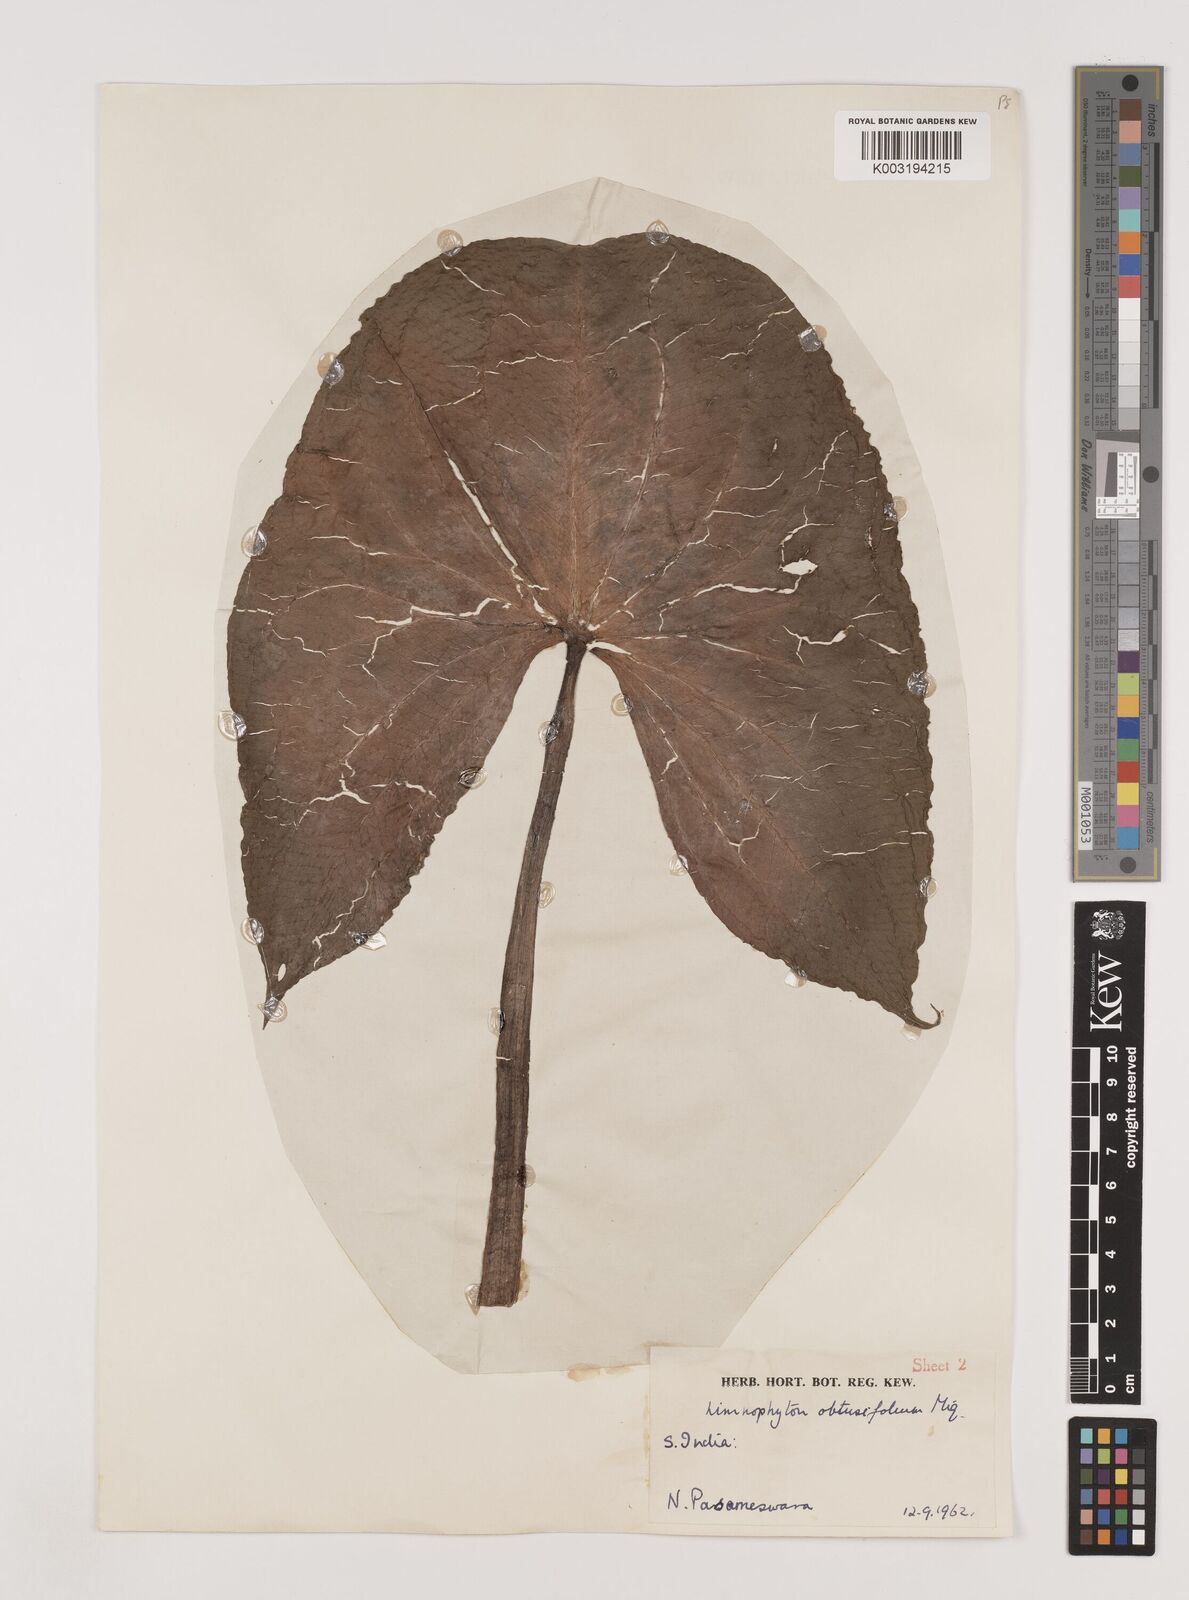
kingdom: Plantae
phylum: Tracheophyta
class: Liliopsida
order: Alismatales
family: Alismataceae
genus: Limnophyton
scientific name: Limnophyton obtusifolium
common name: Arrow head
